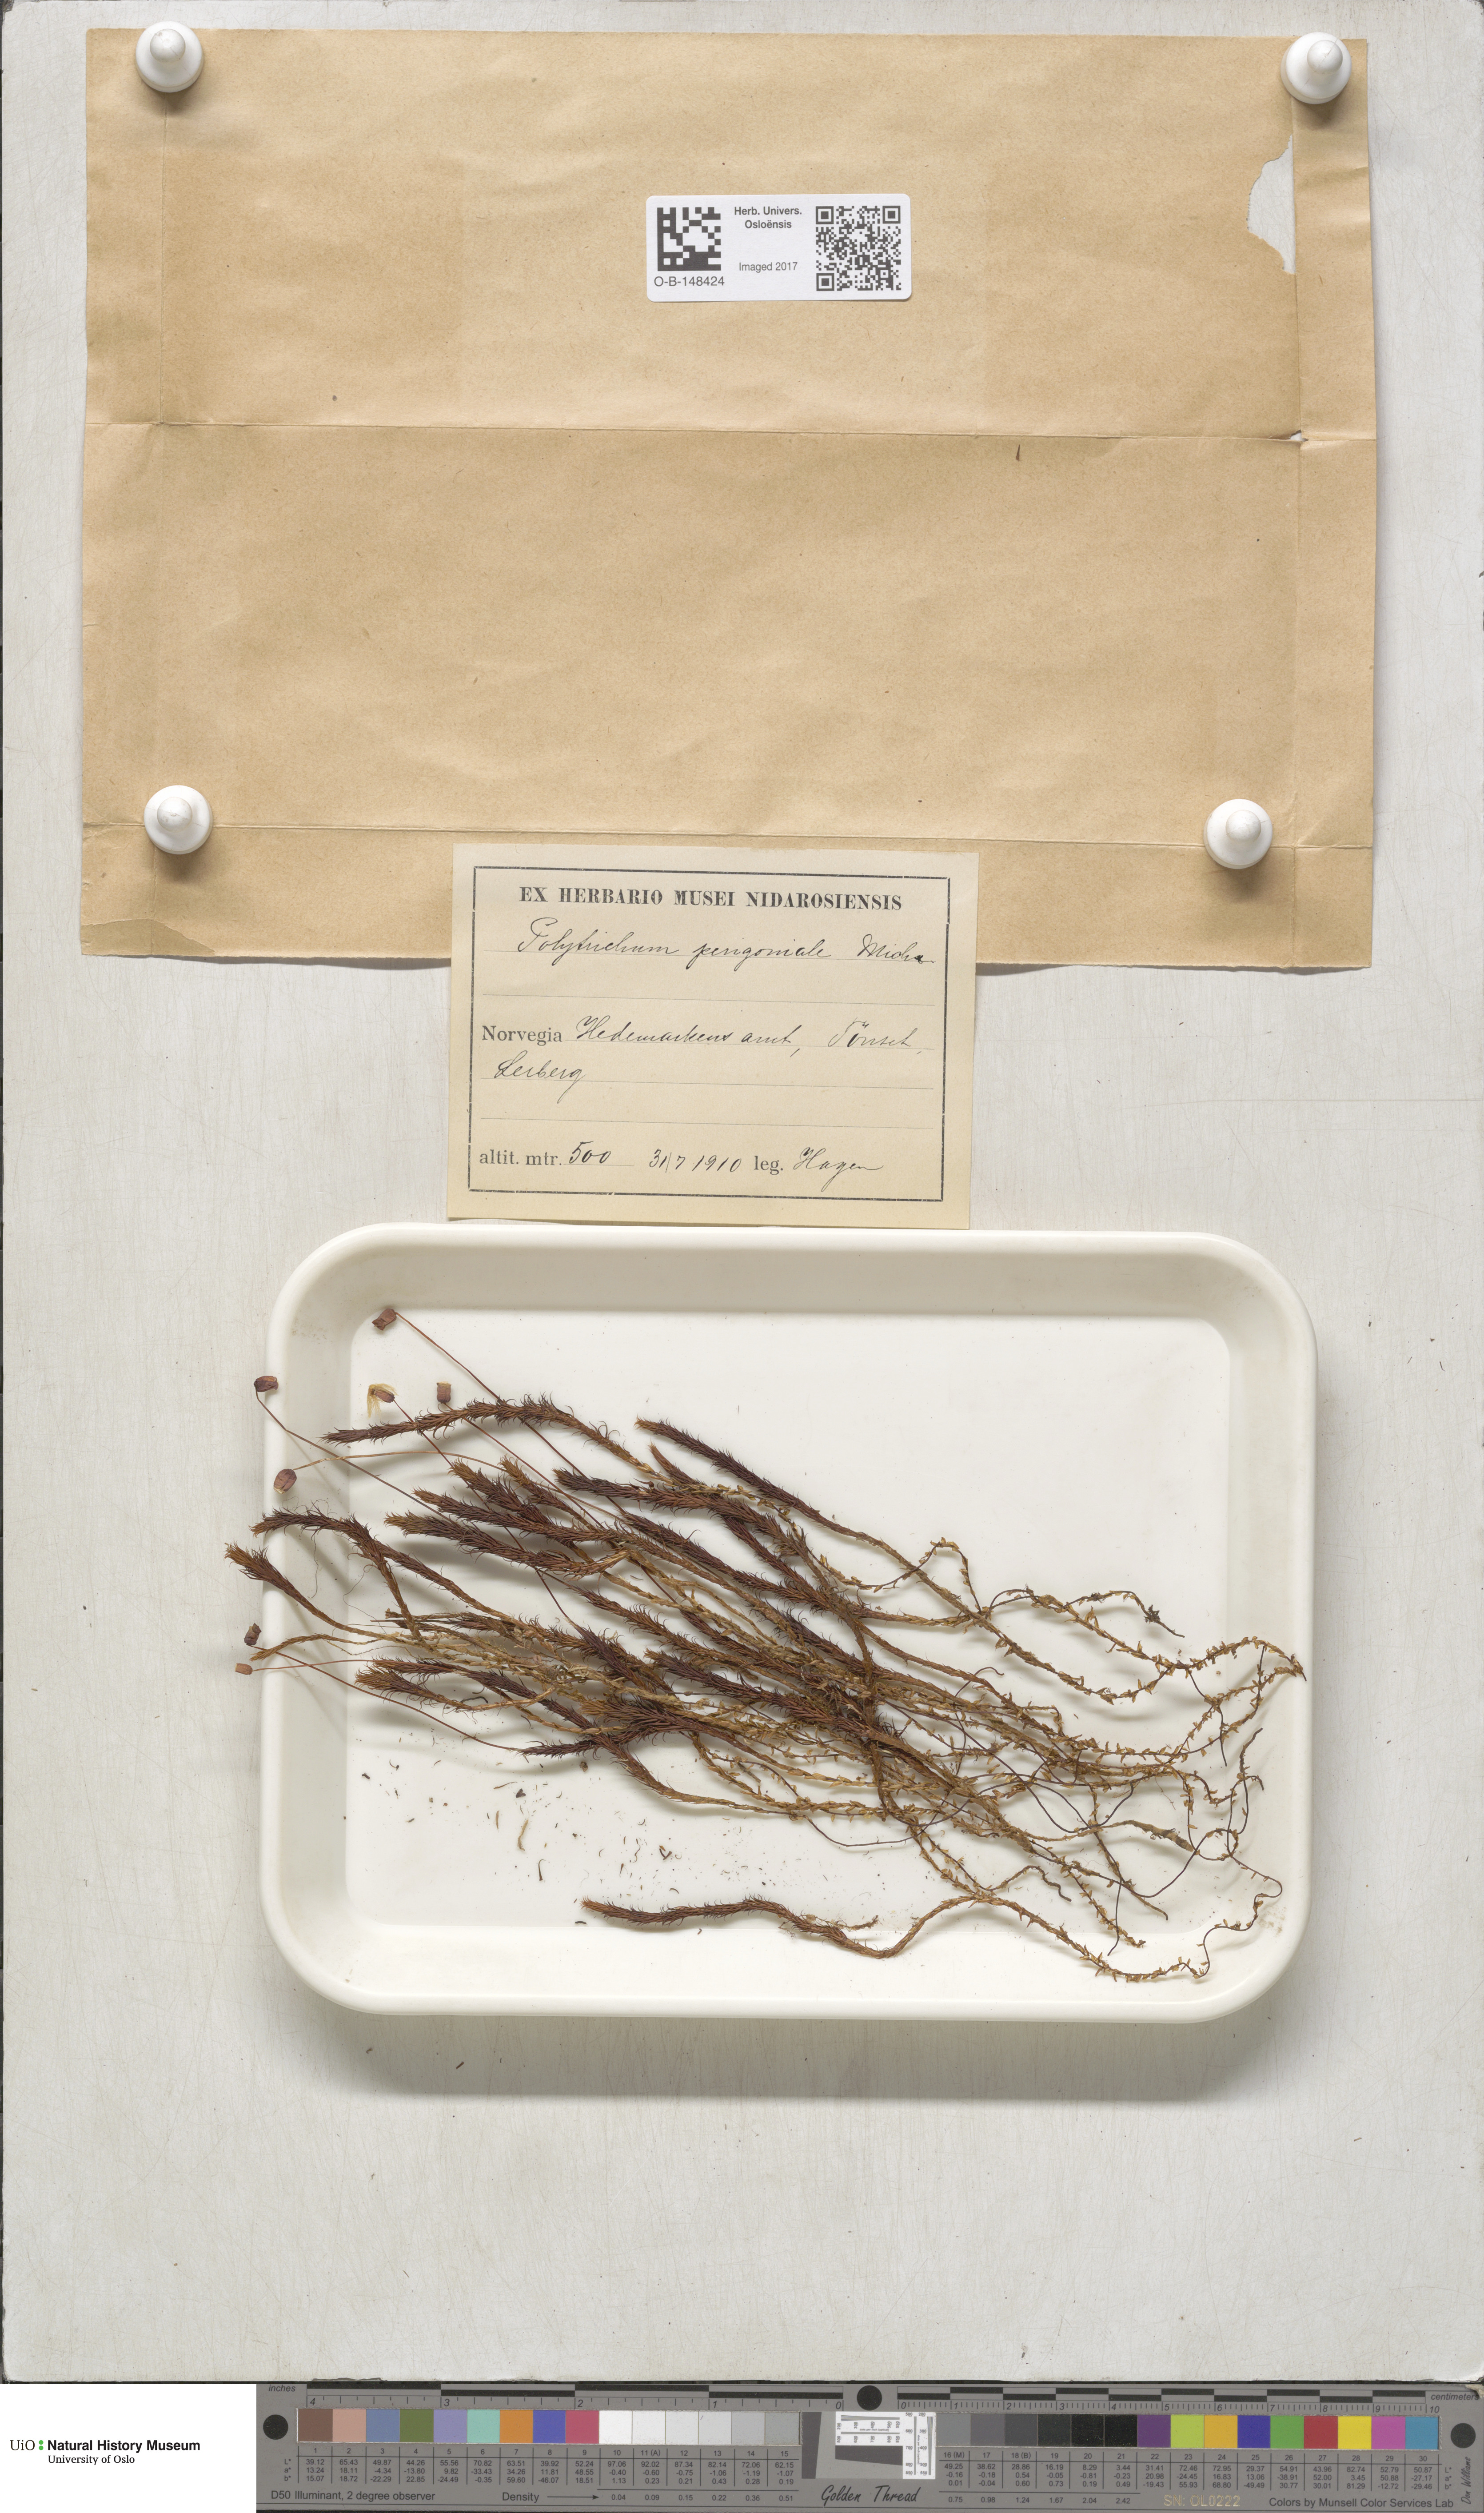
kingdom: Plantae
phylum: Bryophyta
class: Polytrichopsida
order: Polytrichales
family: Polytrichaceae
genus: Polytrichum
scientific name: Polytrichum commune
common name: Common haircap
